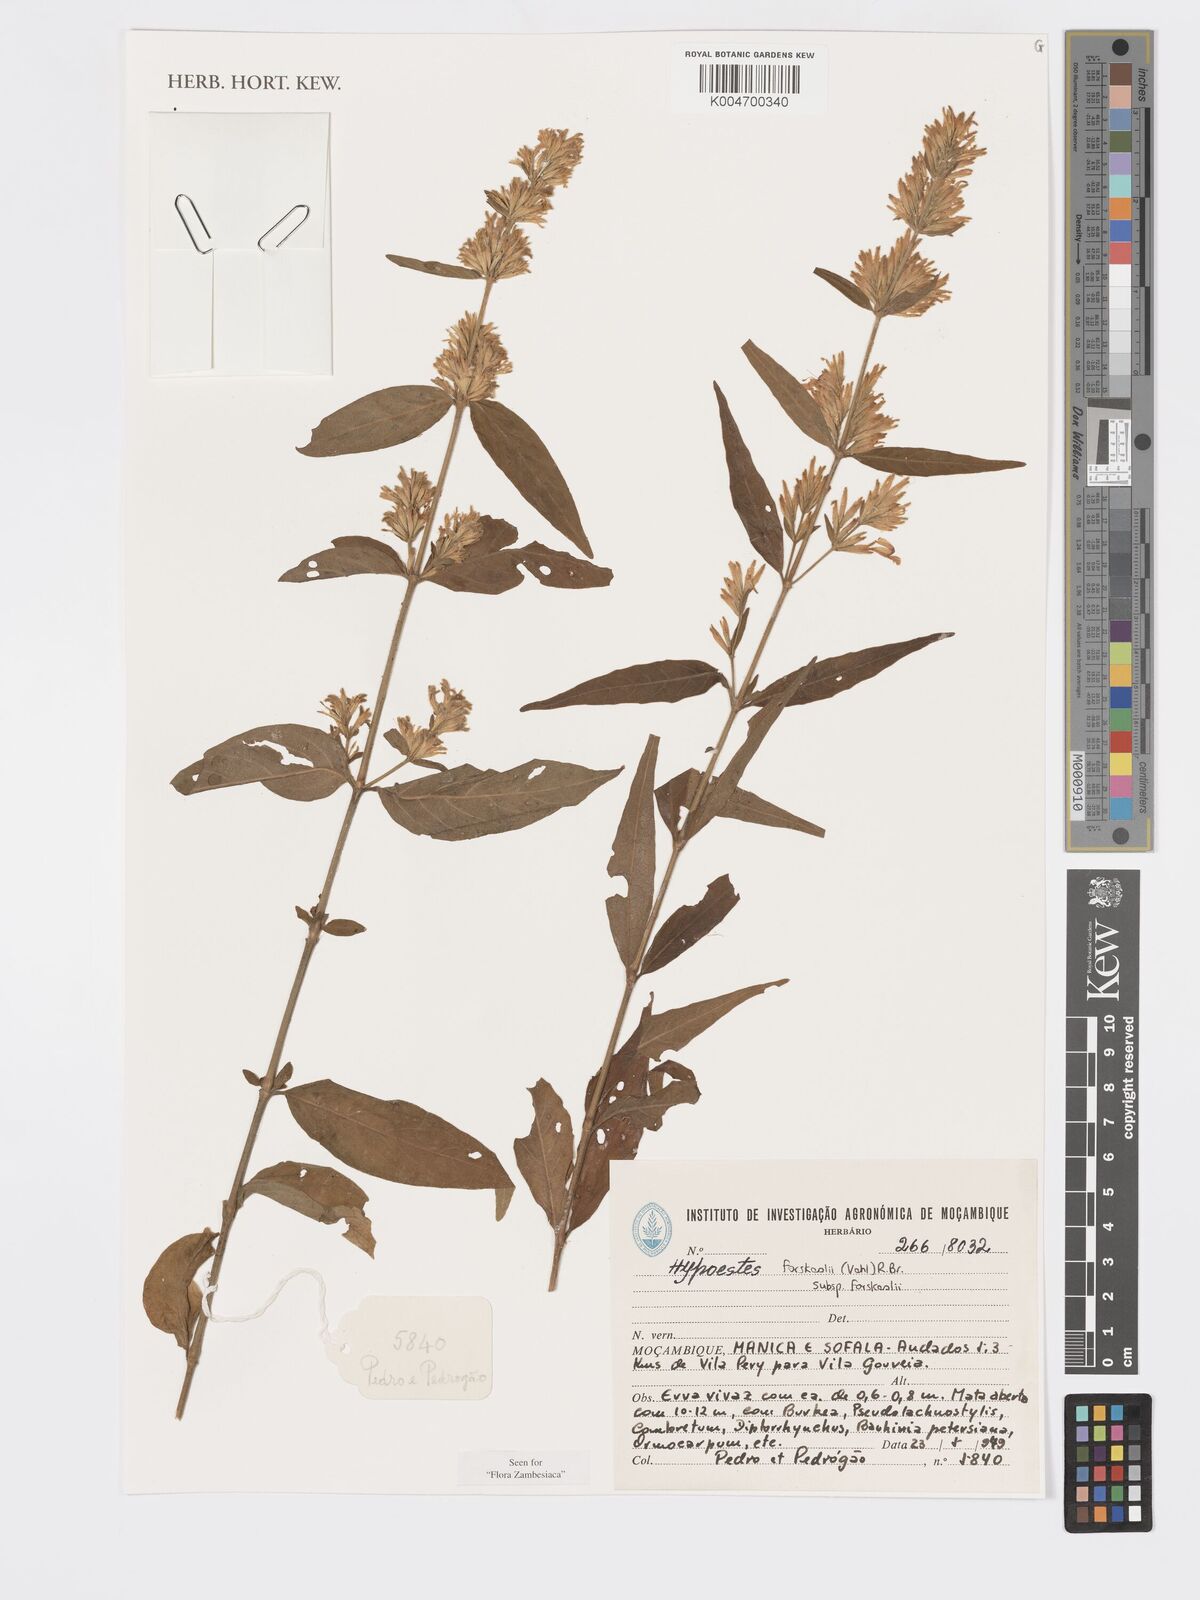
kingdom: Plantae
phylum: Tracheophyta
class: Magnoliopsida
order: Lamiales
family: Acanthaceae
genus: Hypoestes
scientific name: Hypoestes forskaolii
